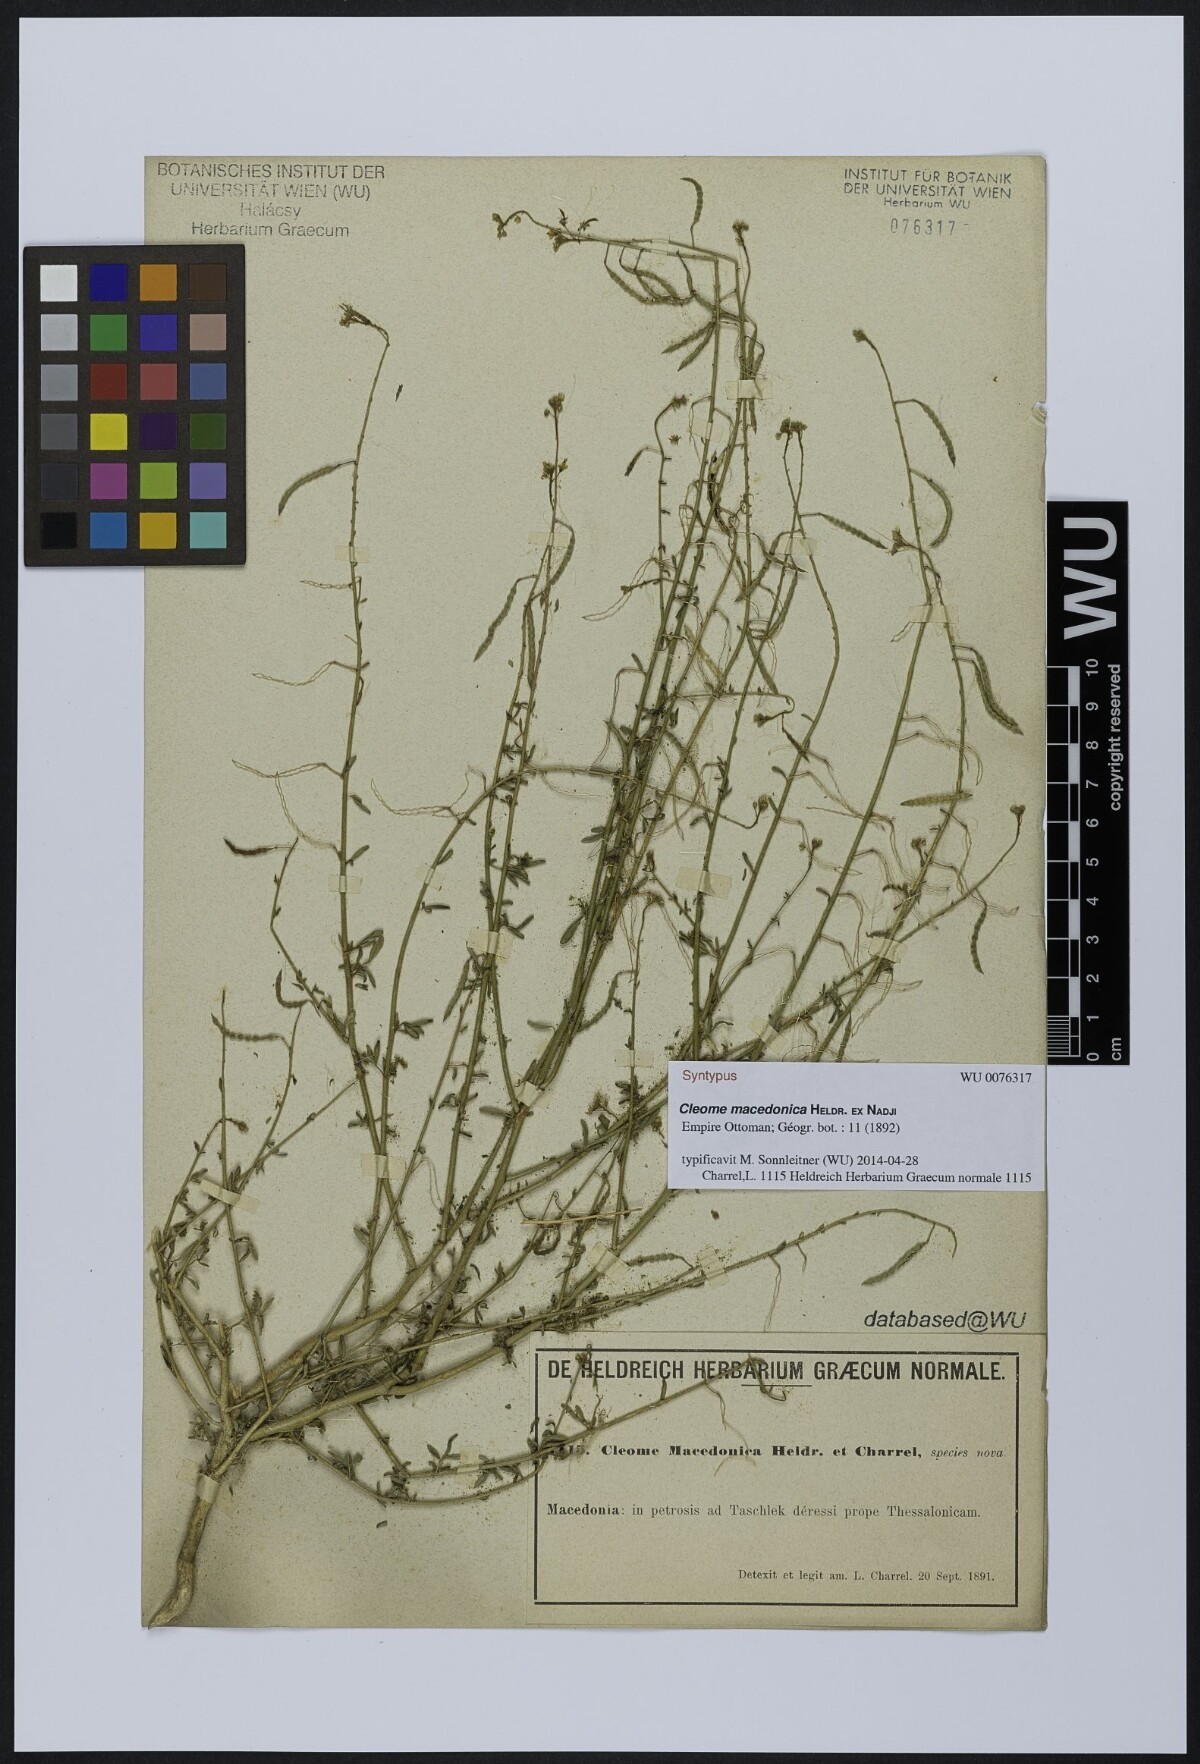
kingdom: Plantae
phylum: Tracheophyta
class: Magnoliopsida
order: Brassicales
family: Cleomaceae
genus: Cleome
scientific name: Cleome ornithopodioides
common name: Bird spiderflower
